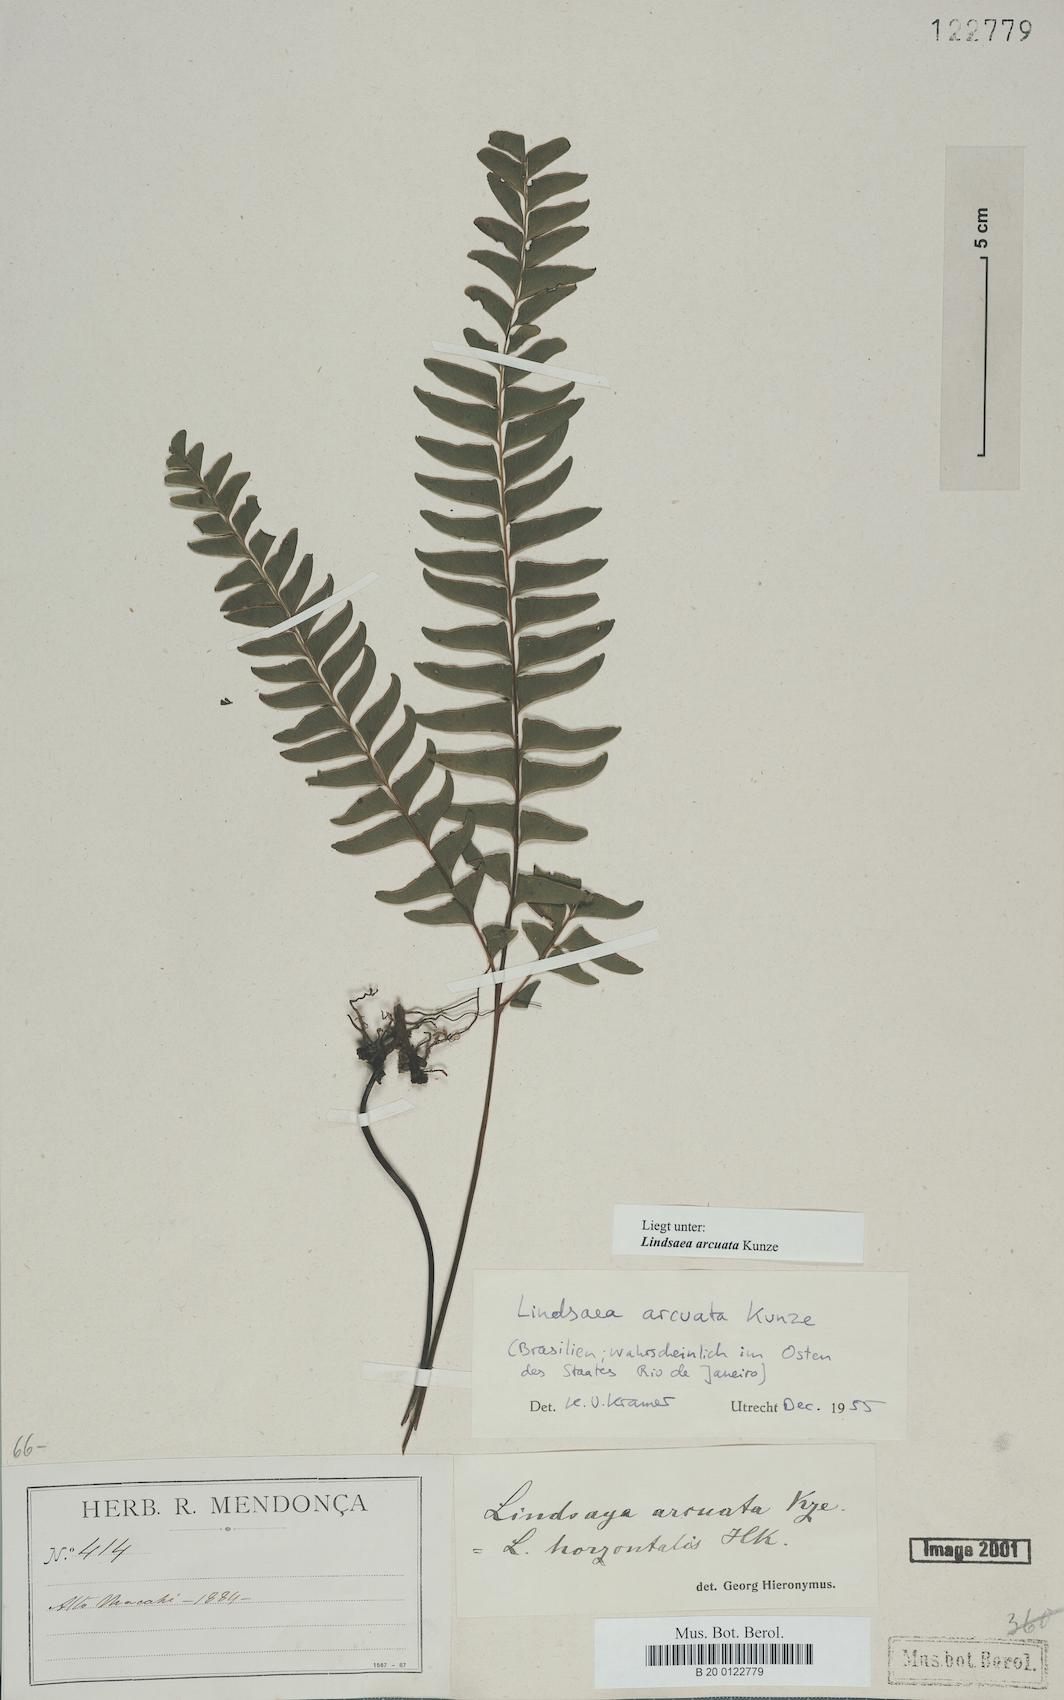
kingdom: Plantae
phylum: Tracheophyta
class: Polypodiopsida
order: Polypodiales
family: Lindsaeaceae
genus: Lindsaea
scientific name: Lindsaea arcuata
